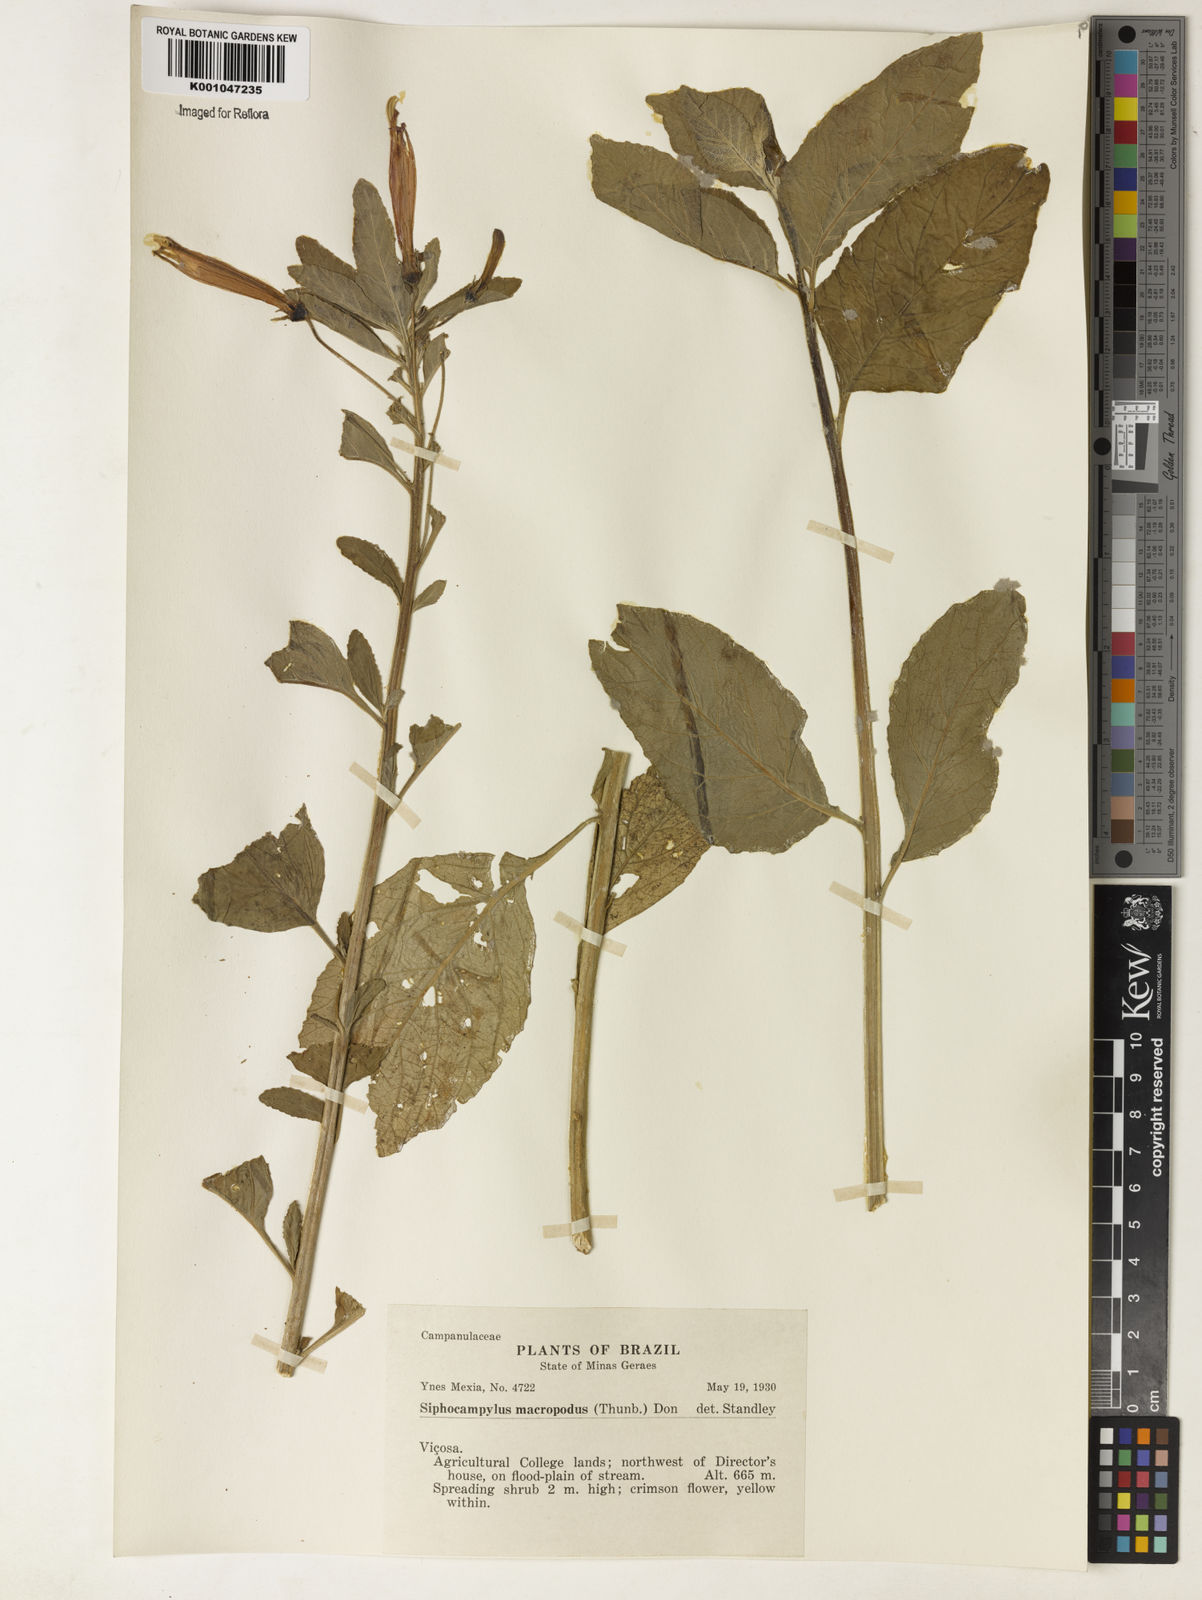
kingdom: Plantae
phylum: Tracheophyta
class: Magnoliopsida
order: Asterales
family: Campanulaceae
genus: Siphocampylus
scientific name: Siphocampylus macropodus
